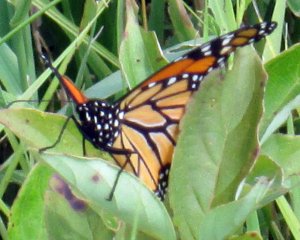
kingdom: Animalia
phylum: Arthropoda
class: Insecta
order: Lepidoptera
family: Nymphalidae
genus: Danaus
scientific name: Danaus plexippus
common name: Monarch
